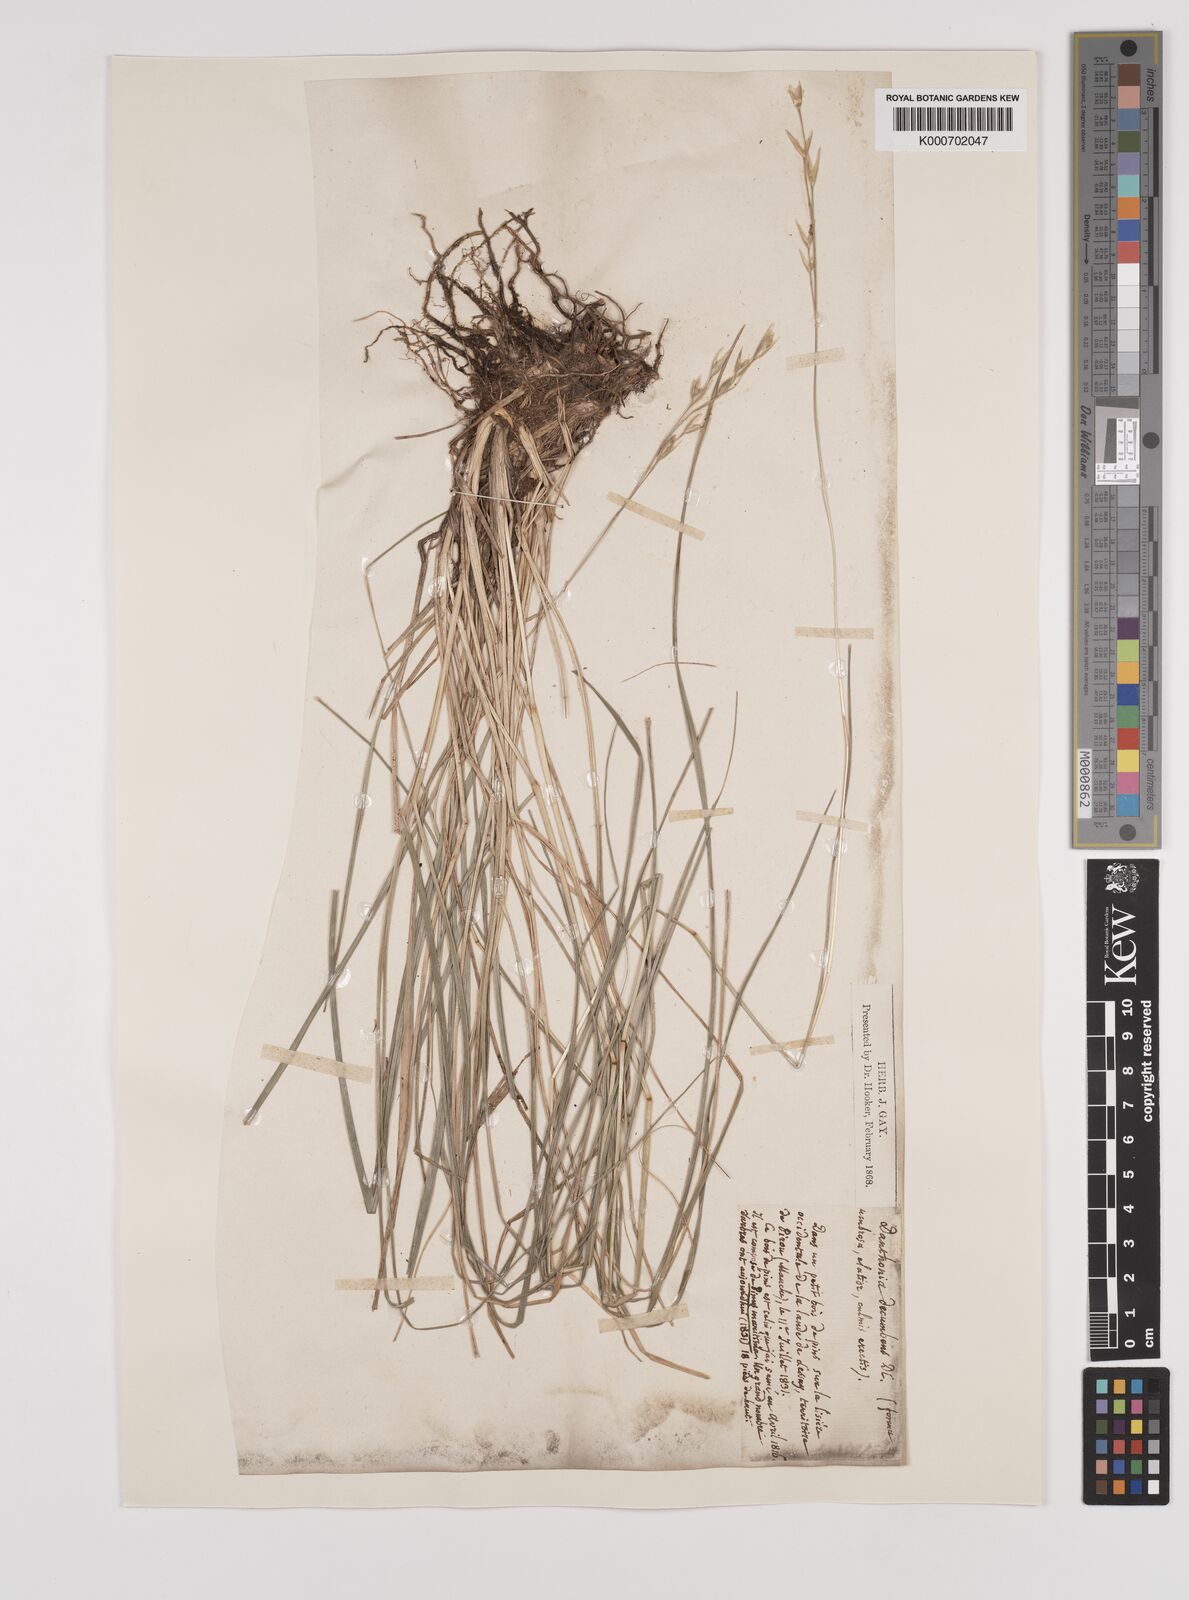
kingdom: Plantae
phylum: Tracheophyta
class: Liliopsida
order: Poales
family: Poaceae
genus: Danthonia
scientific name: Danthonia decumbens
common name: Common heathgrass
